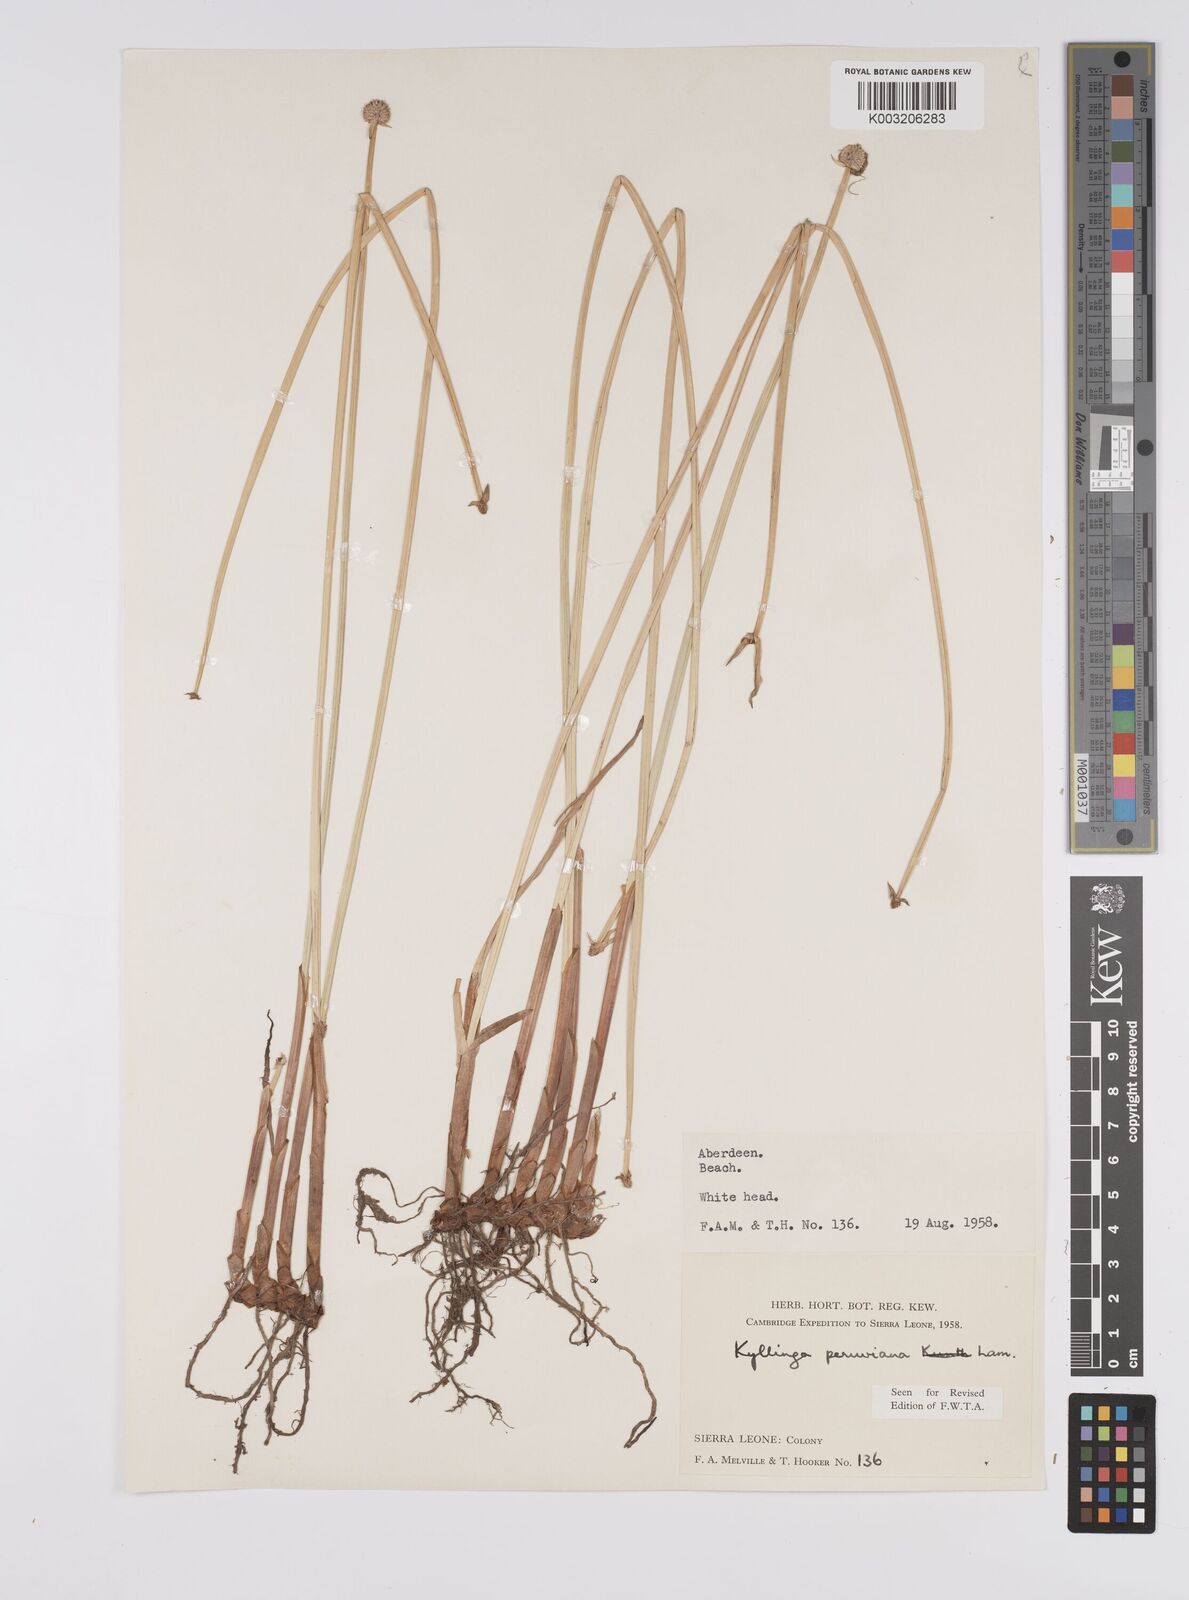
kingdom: Plantae
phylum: Tracheophyta
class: Liliopsida
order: Poales
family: Cyperaceae
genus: Cyperus
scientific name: Cyperus obtusatus
